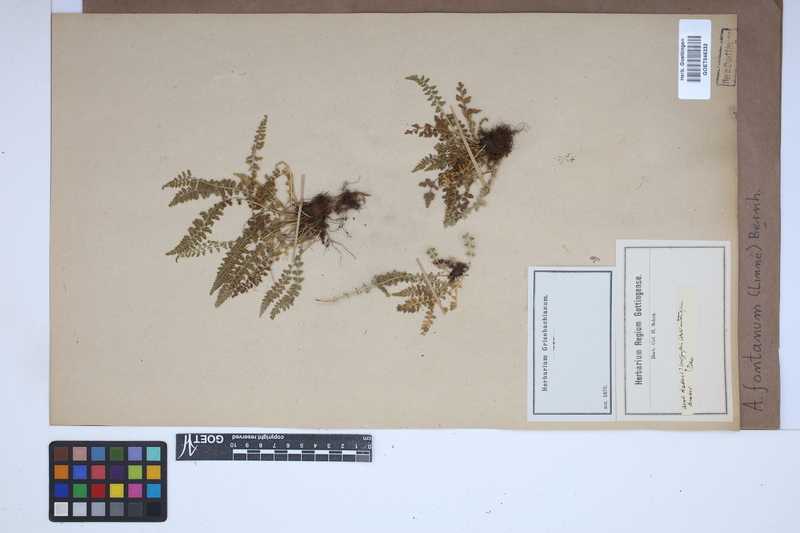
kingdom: Plantae
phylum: Tracheophyta
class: Polypodiopsida
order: Polypodiales
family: Aspleniaceae
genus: Asplenium
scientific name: Asplenium fontanum
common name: Fountain spleenwort
